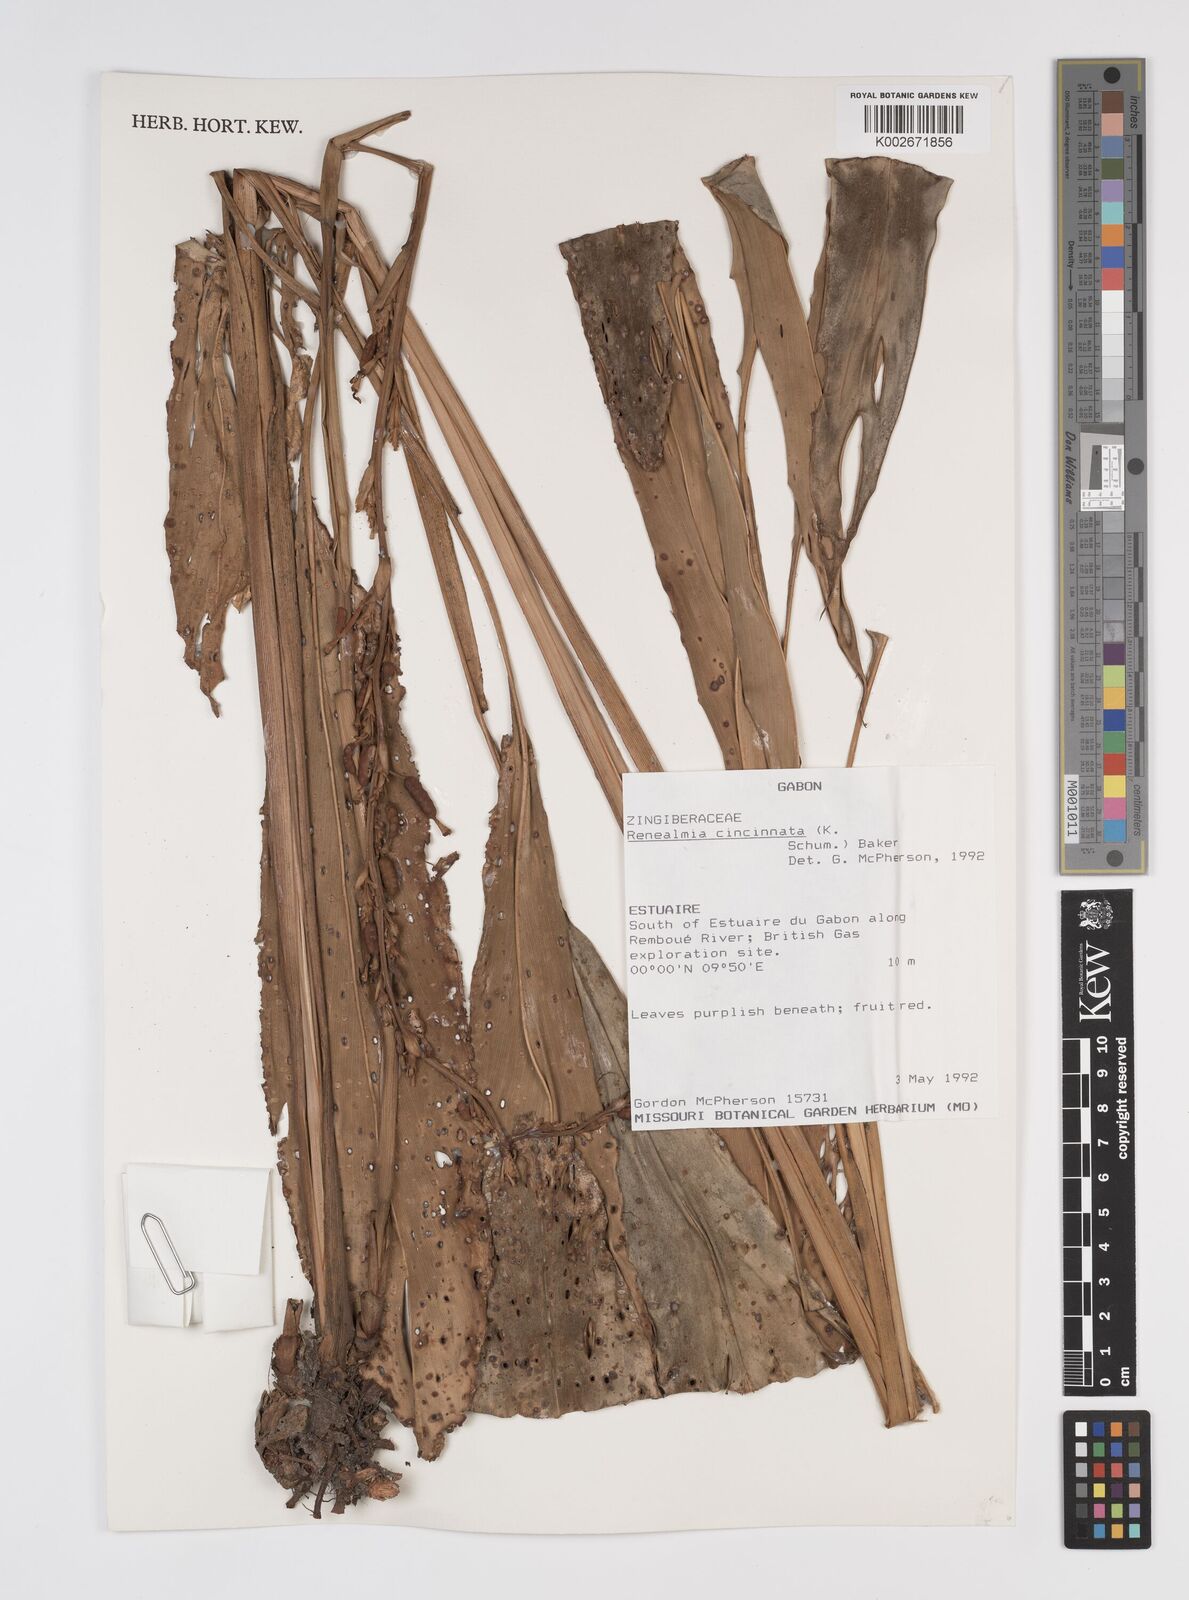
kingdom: Plantae
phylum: Tracheophyta
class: Liliopsida
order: Zingiberales
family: Zingiberaceae
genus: Renealmia
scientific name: Renealmia cincinnata
